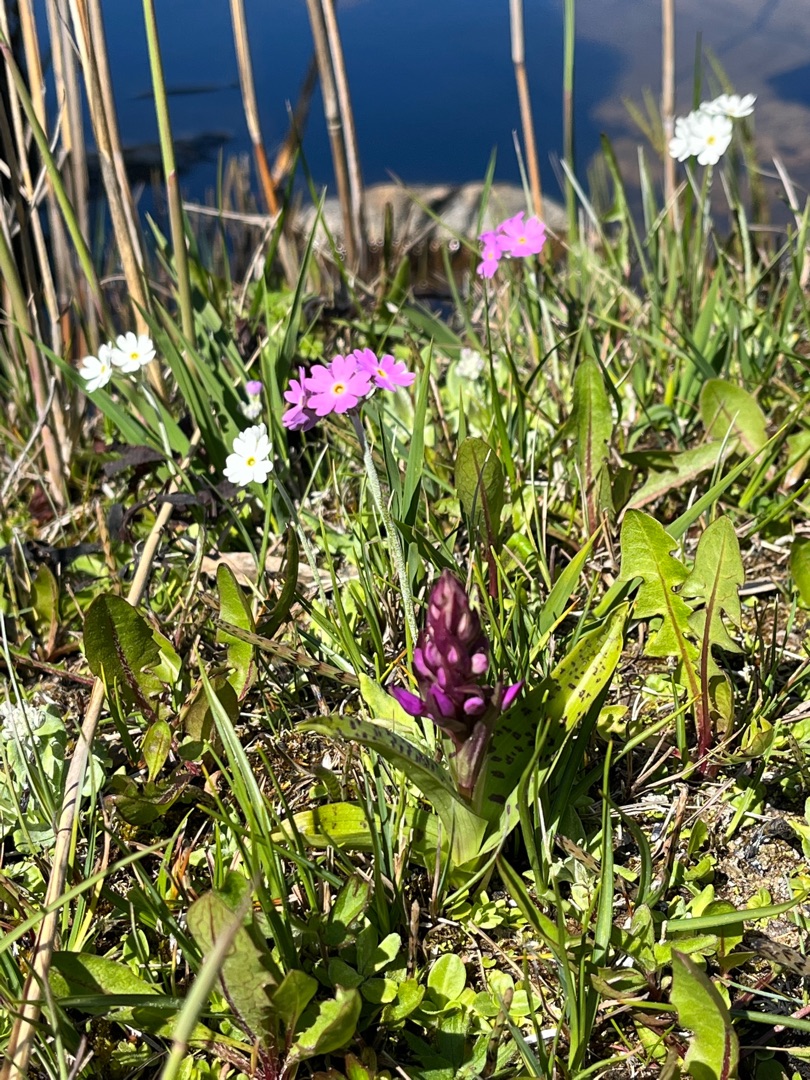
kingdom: Plantae
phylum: Tracheophyta
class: Magnoliopsida
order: Ericales
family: Primulaceae
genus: Primula
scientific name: Primula farinosa
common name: Melet kodriver
